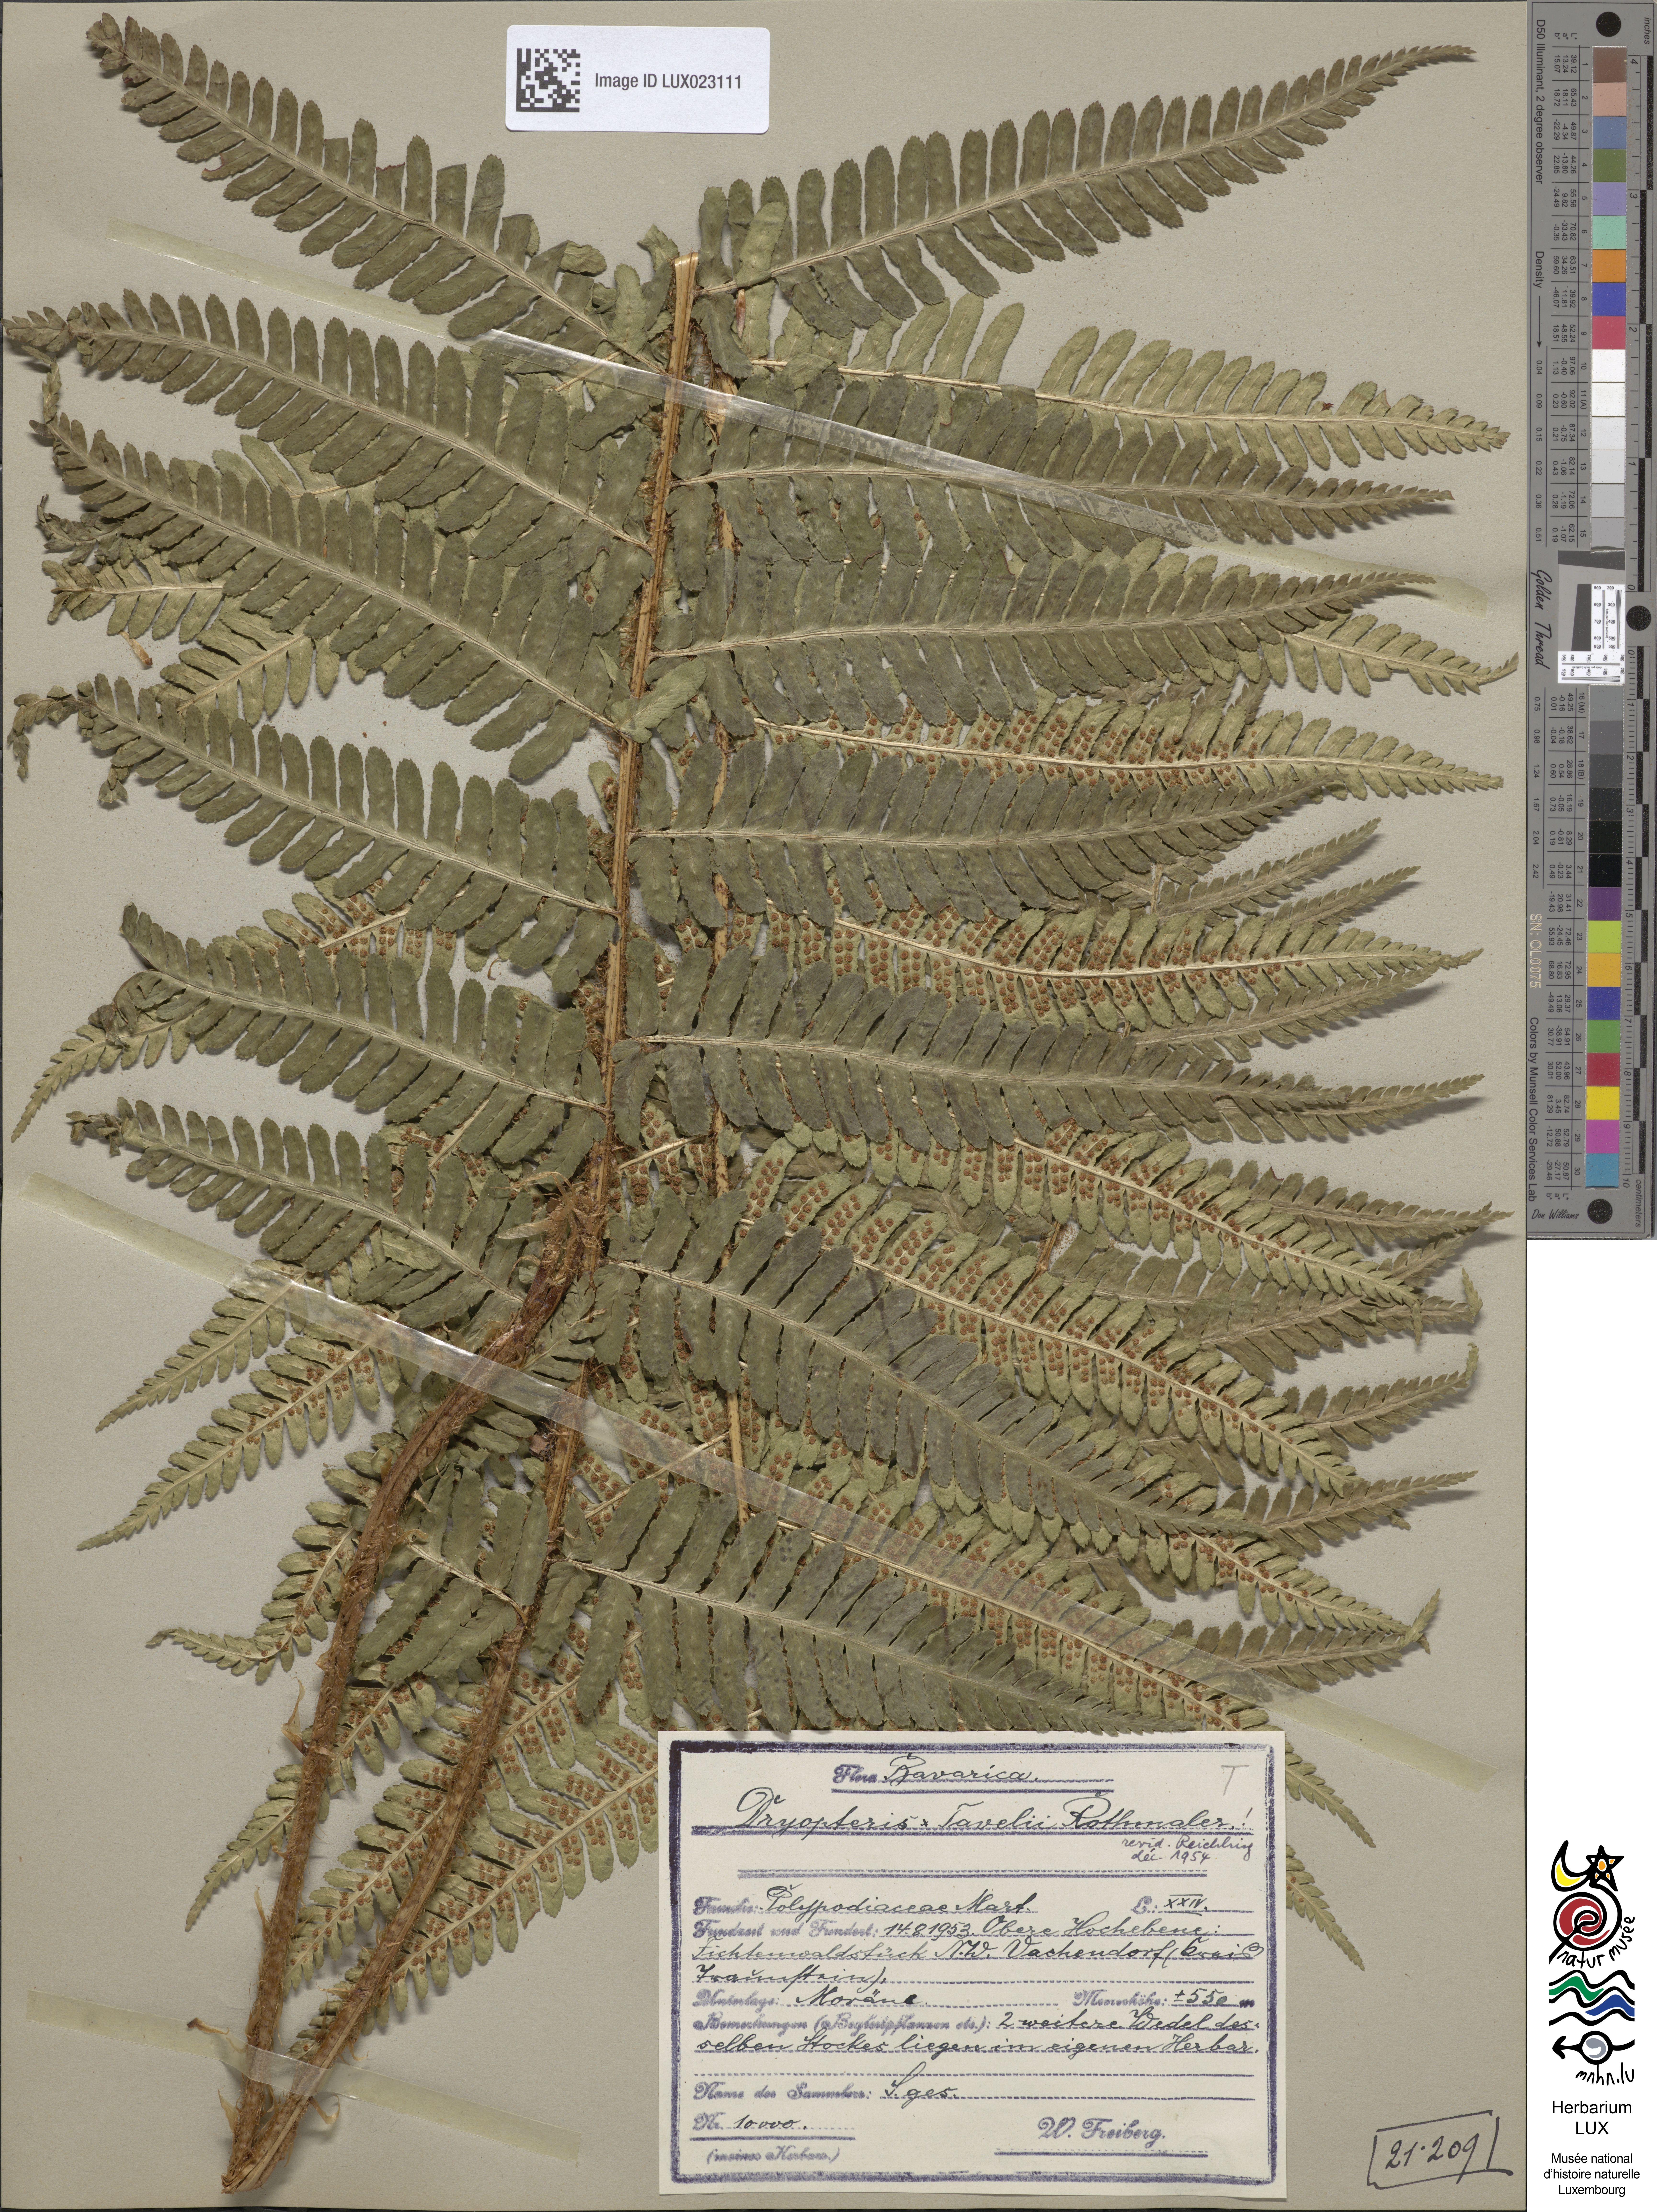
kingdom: Plantae
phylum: Tracheophyta
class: Polypodiopsida
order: Polypodiales
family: Dryopteridaceae
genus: Dryopteris
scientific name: Dryopteris borreri
